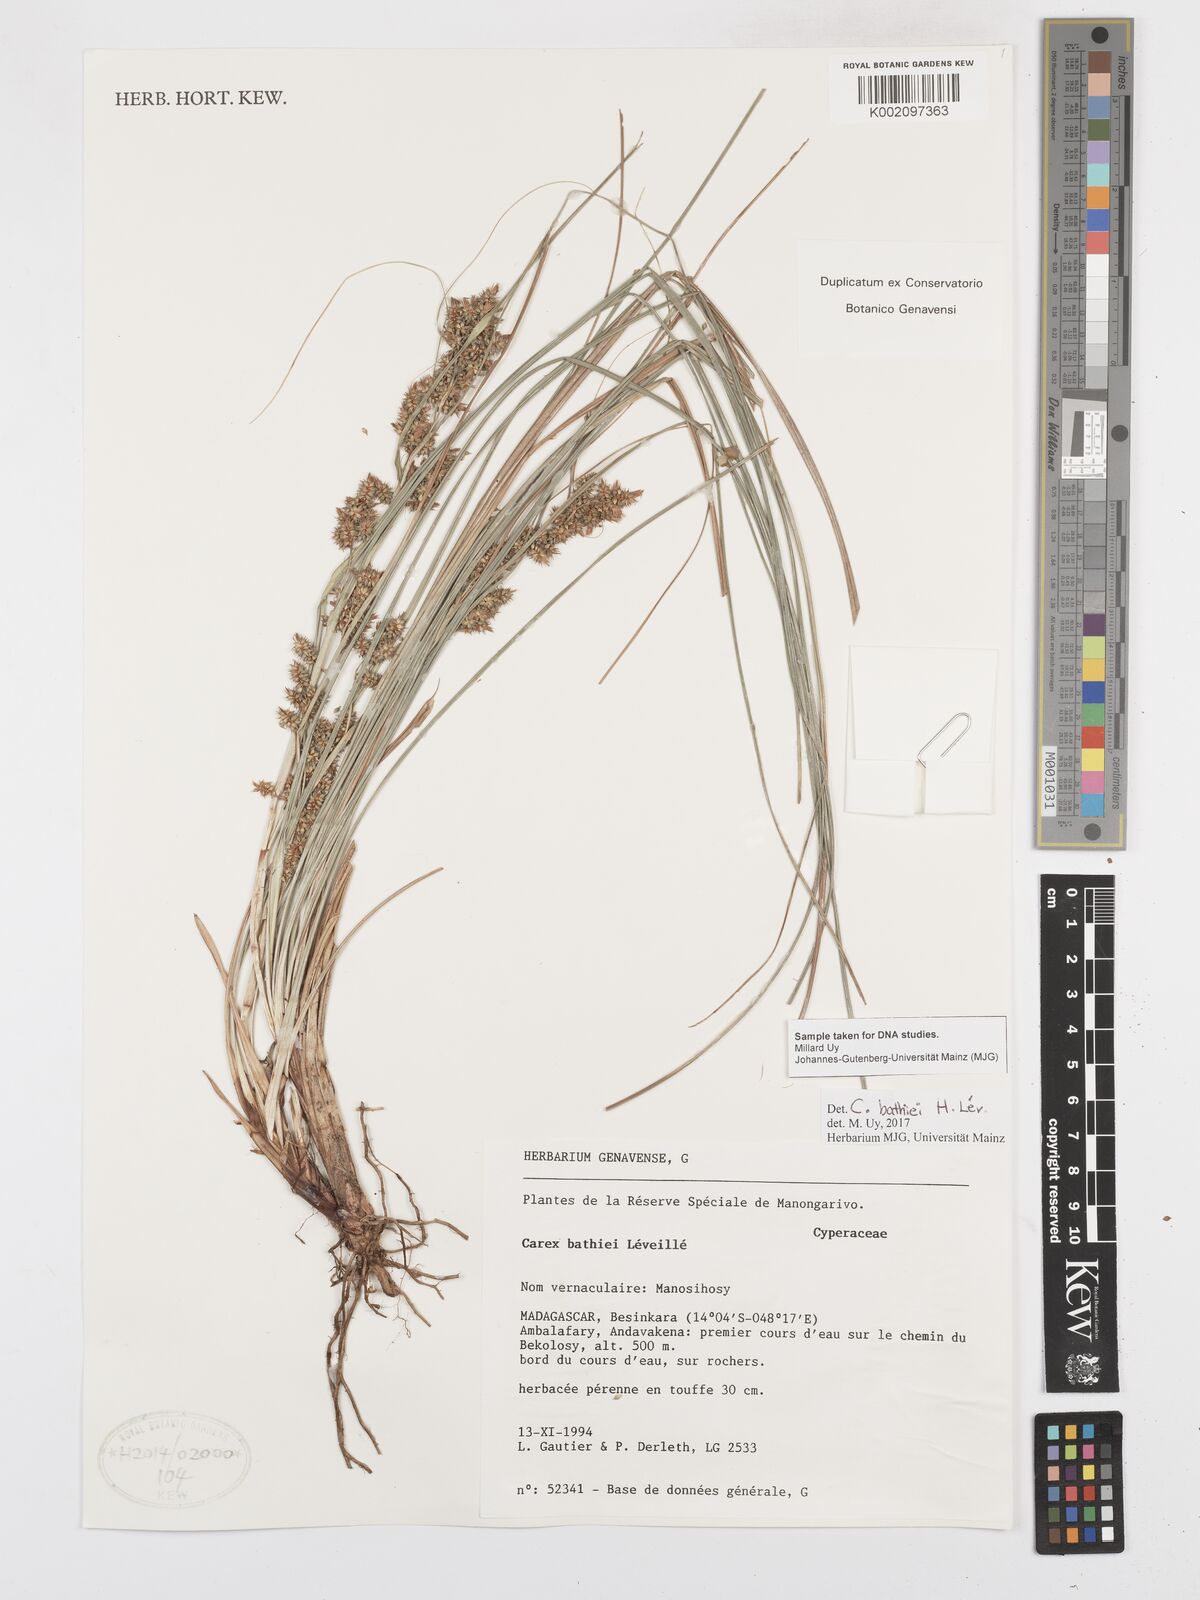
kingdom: Plantae
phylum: Tracheophyta
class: Liliopsida
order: Poales
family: Cyperaceae
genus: Carex
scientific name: Carex bathiei
